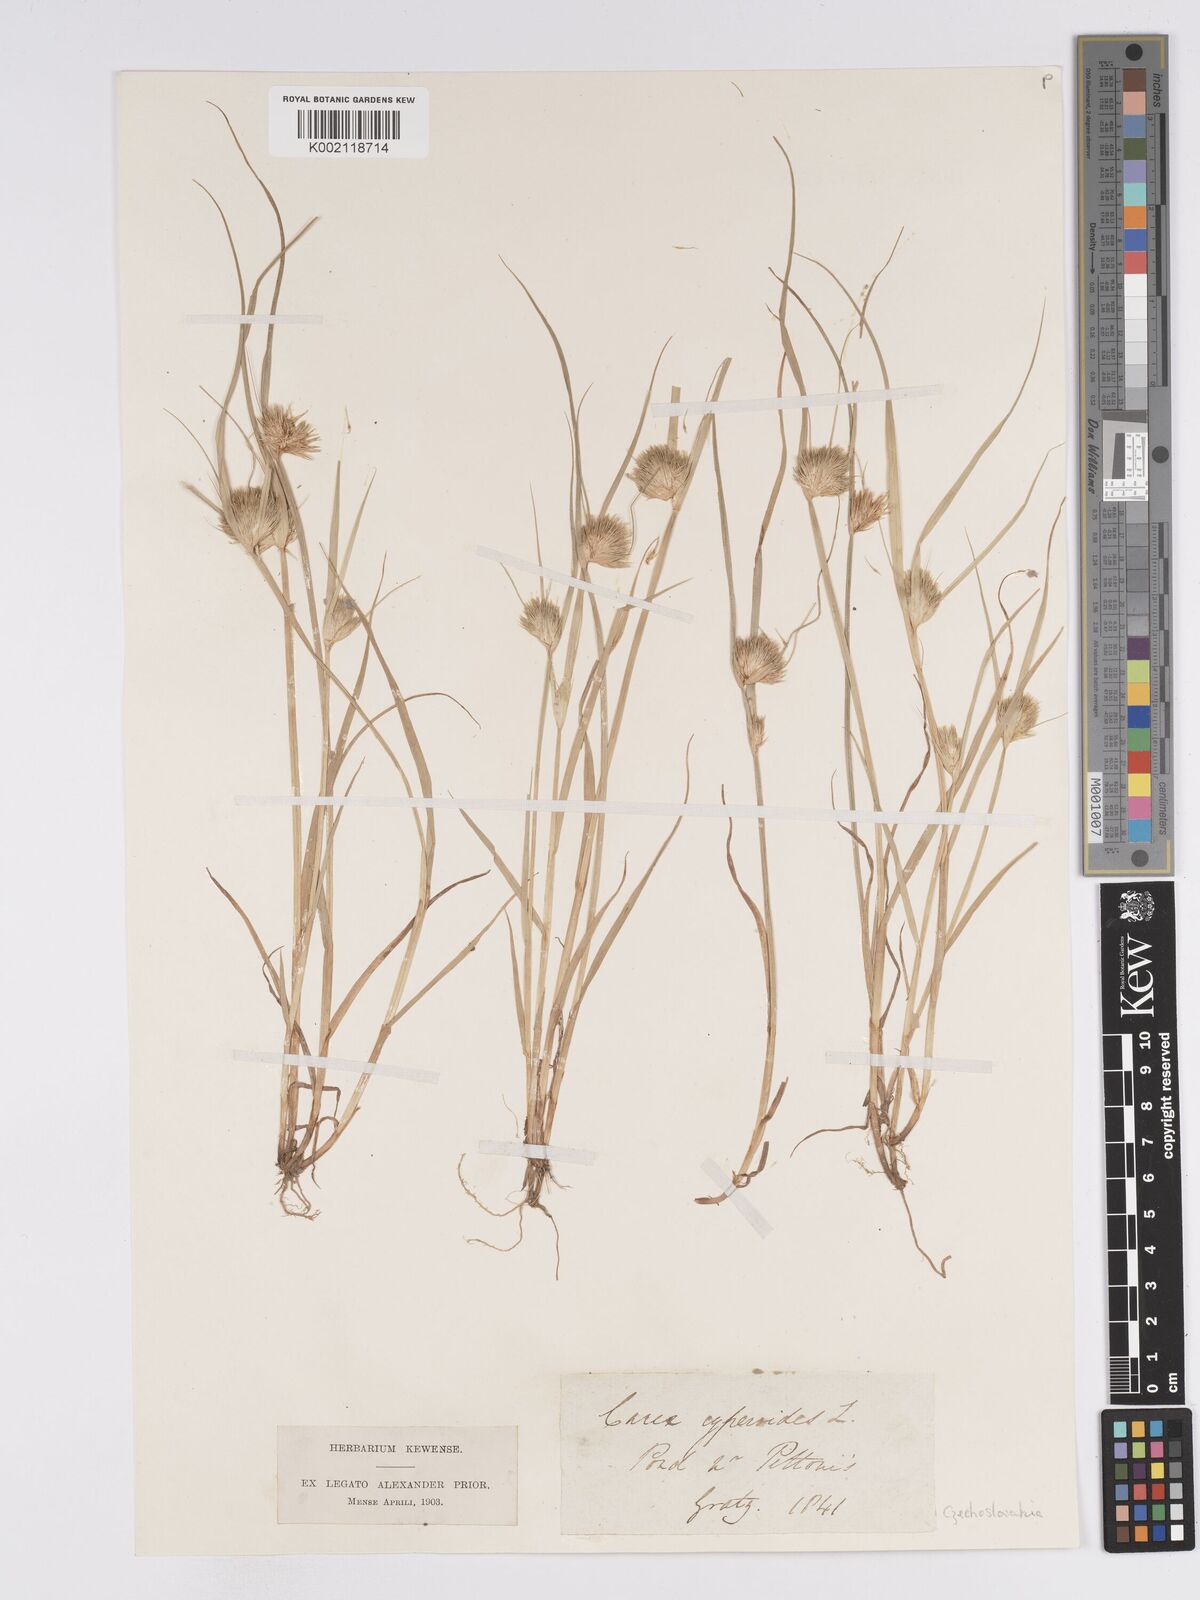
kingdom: Plantae
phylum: Tracheophyta
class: Liliopsida
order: Poales
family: Cyperaceae
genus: Carex
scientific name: Carex bohemica
